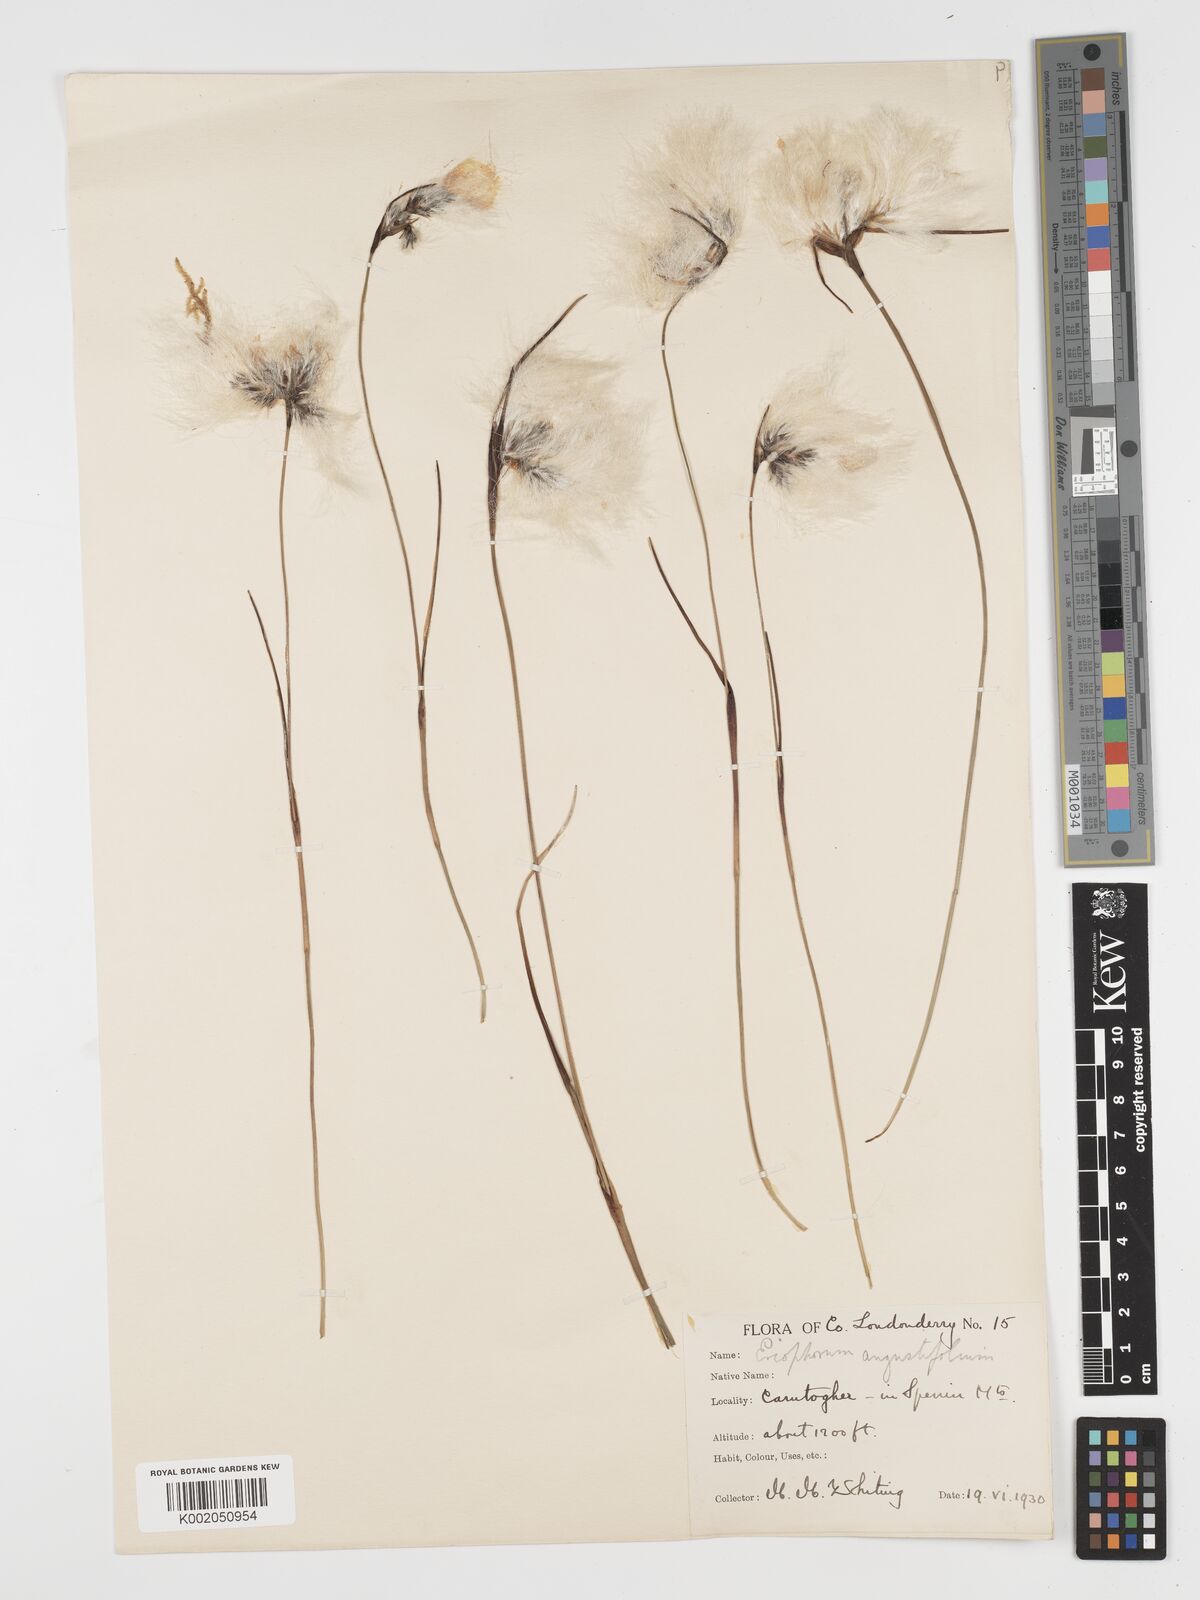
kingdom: Plantae
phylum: Tracheophyta
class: Liliopsida
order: Poales
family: Cyperaceae
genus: Eriophorum
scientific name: Eriophorum angustifolium
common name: Common cottongrass
